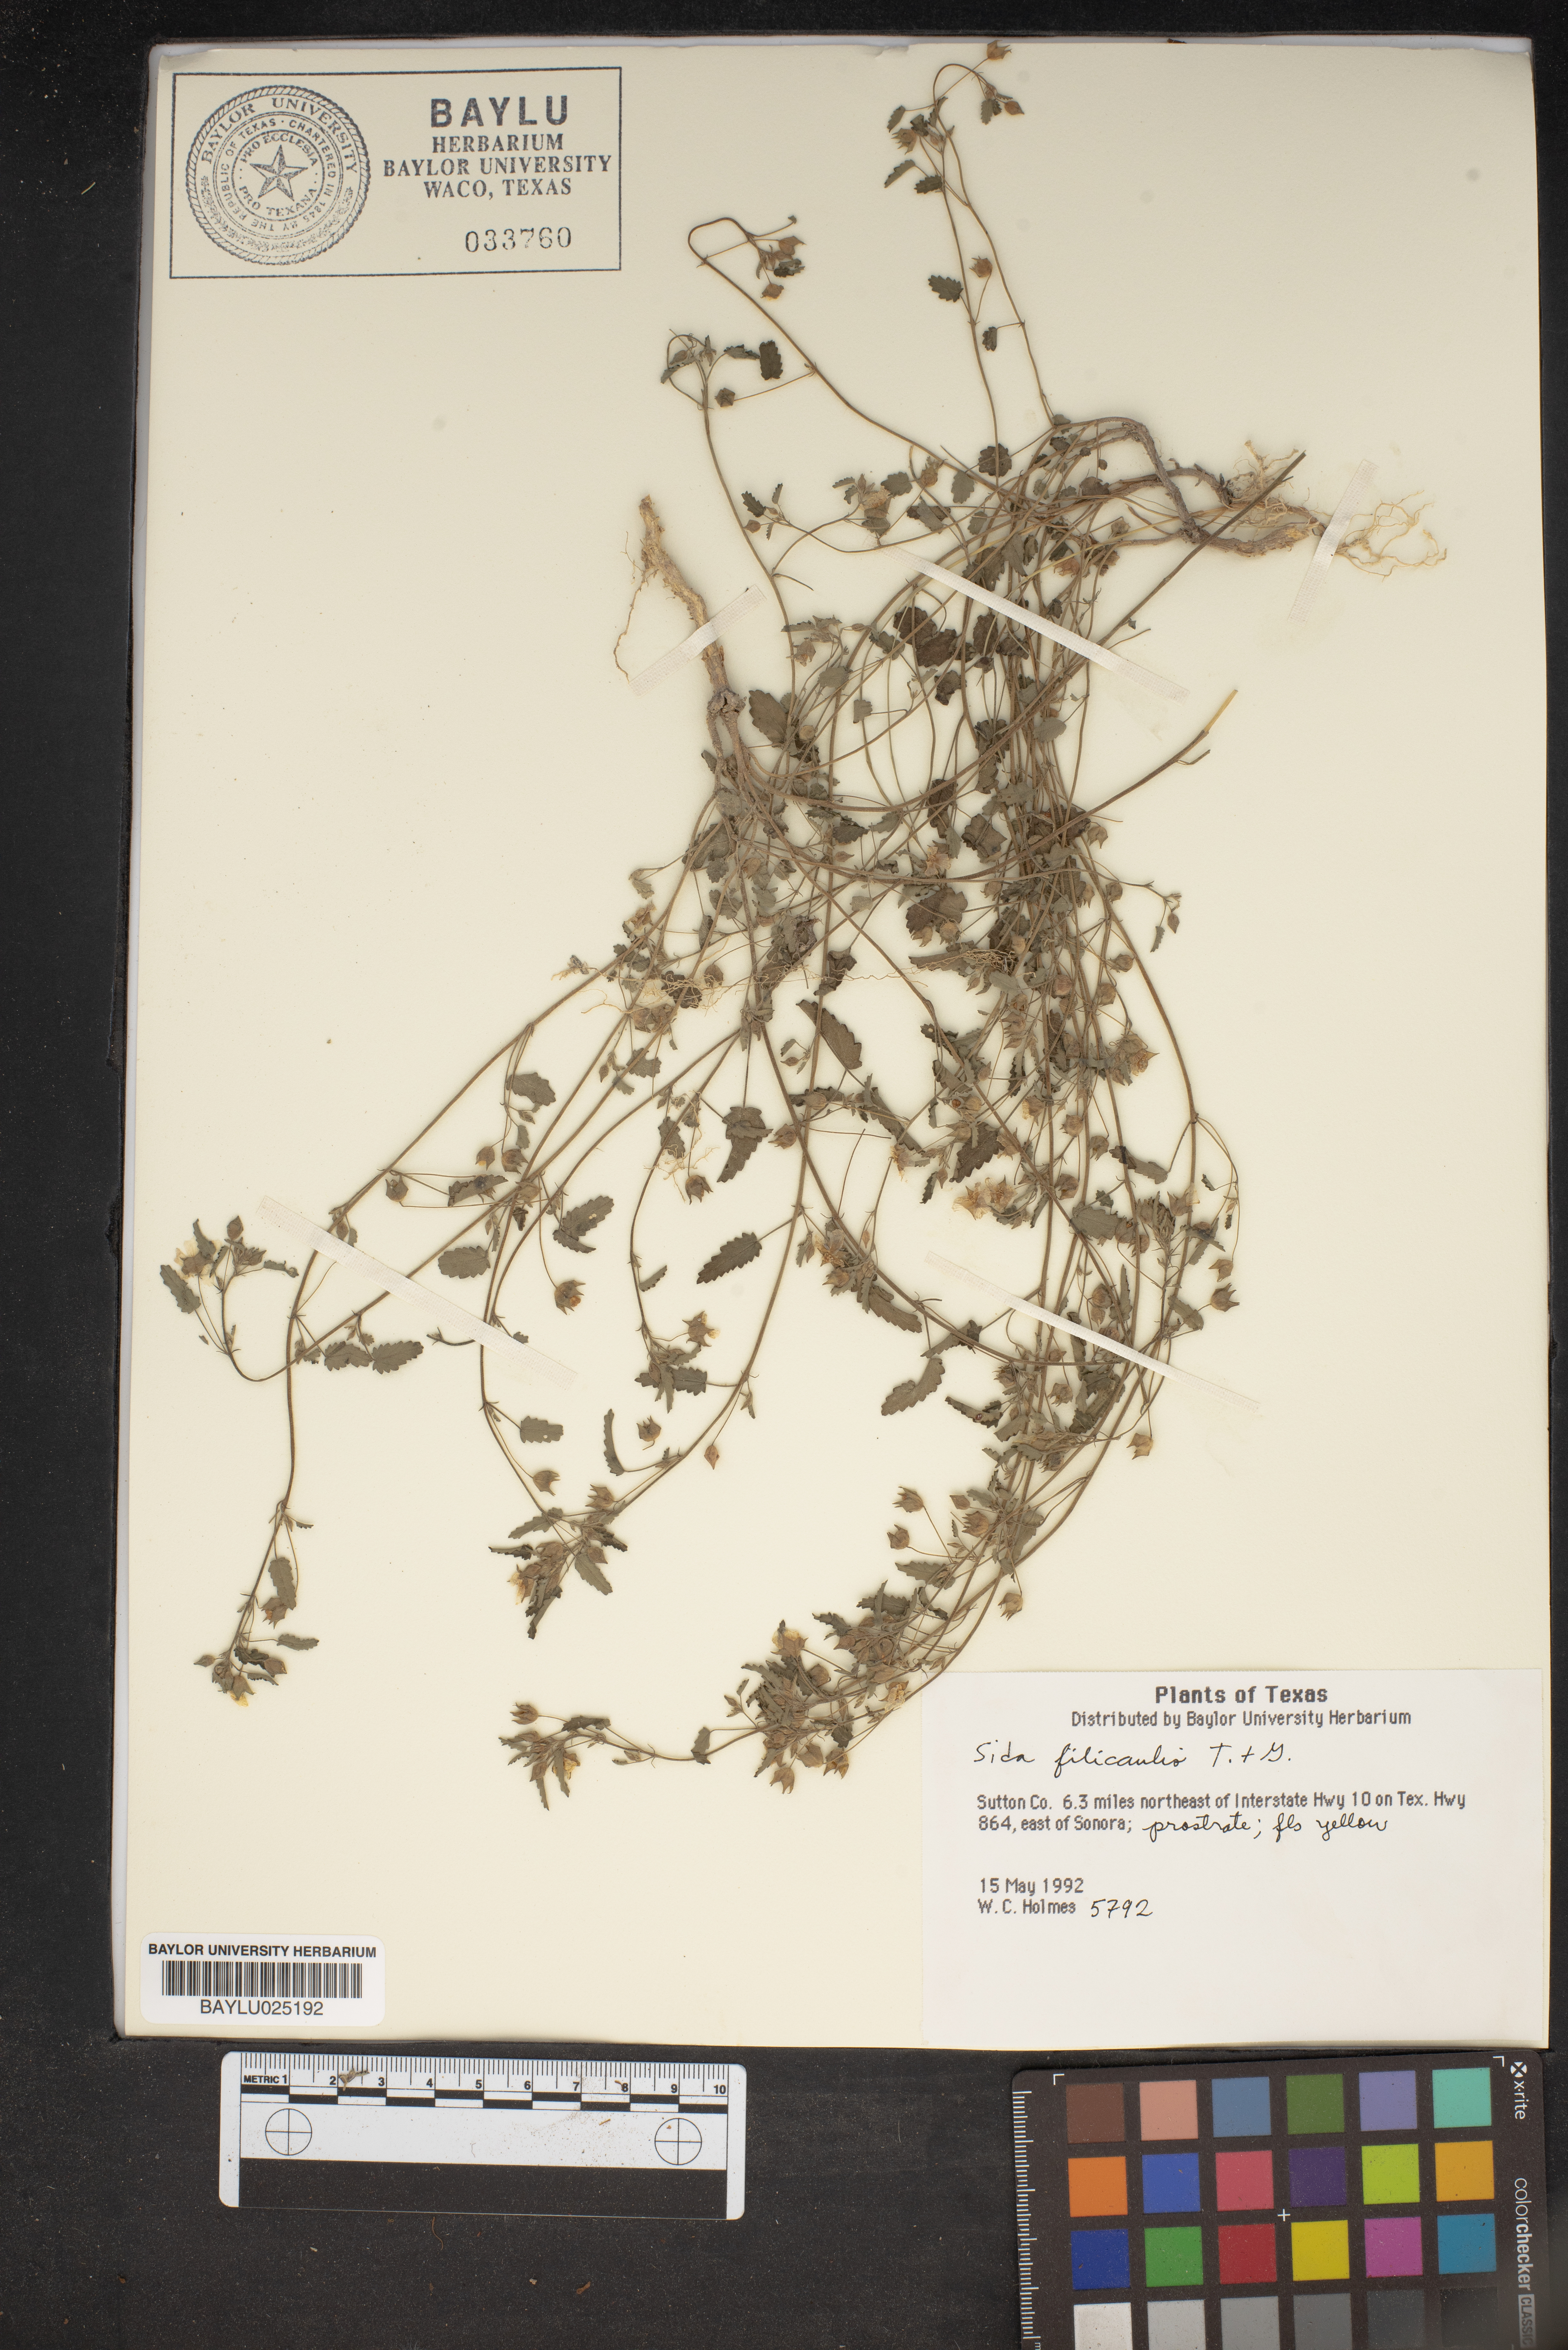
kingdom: Plantae
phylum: Tracheophyta
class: Magnoliopsida
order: Malvales
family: Malvaceae
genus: Sida
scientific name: Sida abutilifolia
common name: Spreading fanpetals
